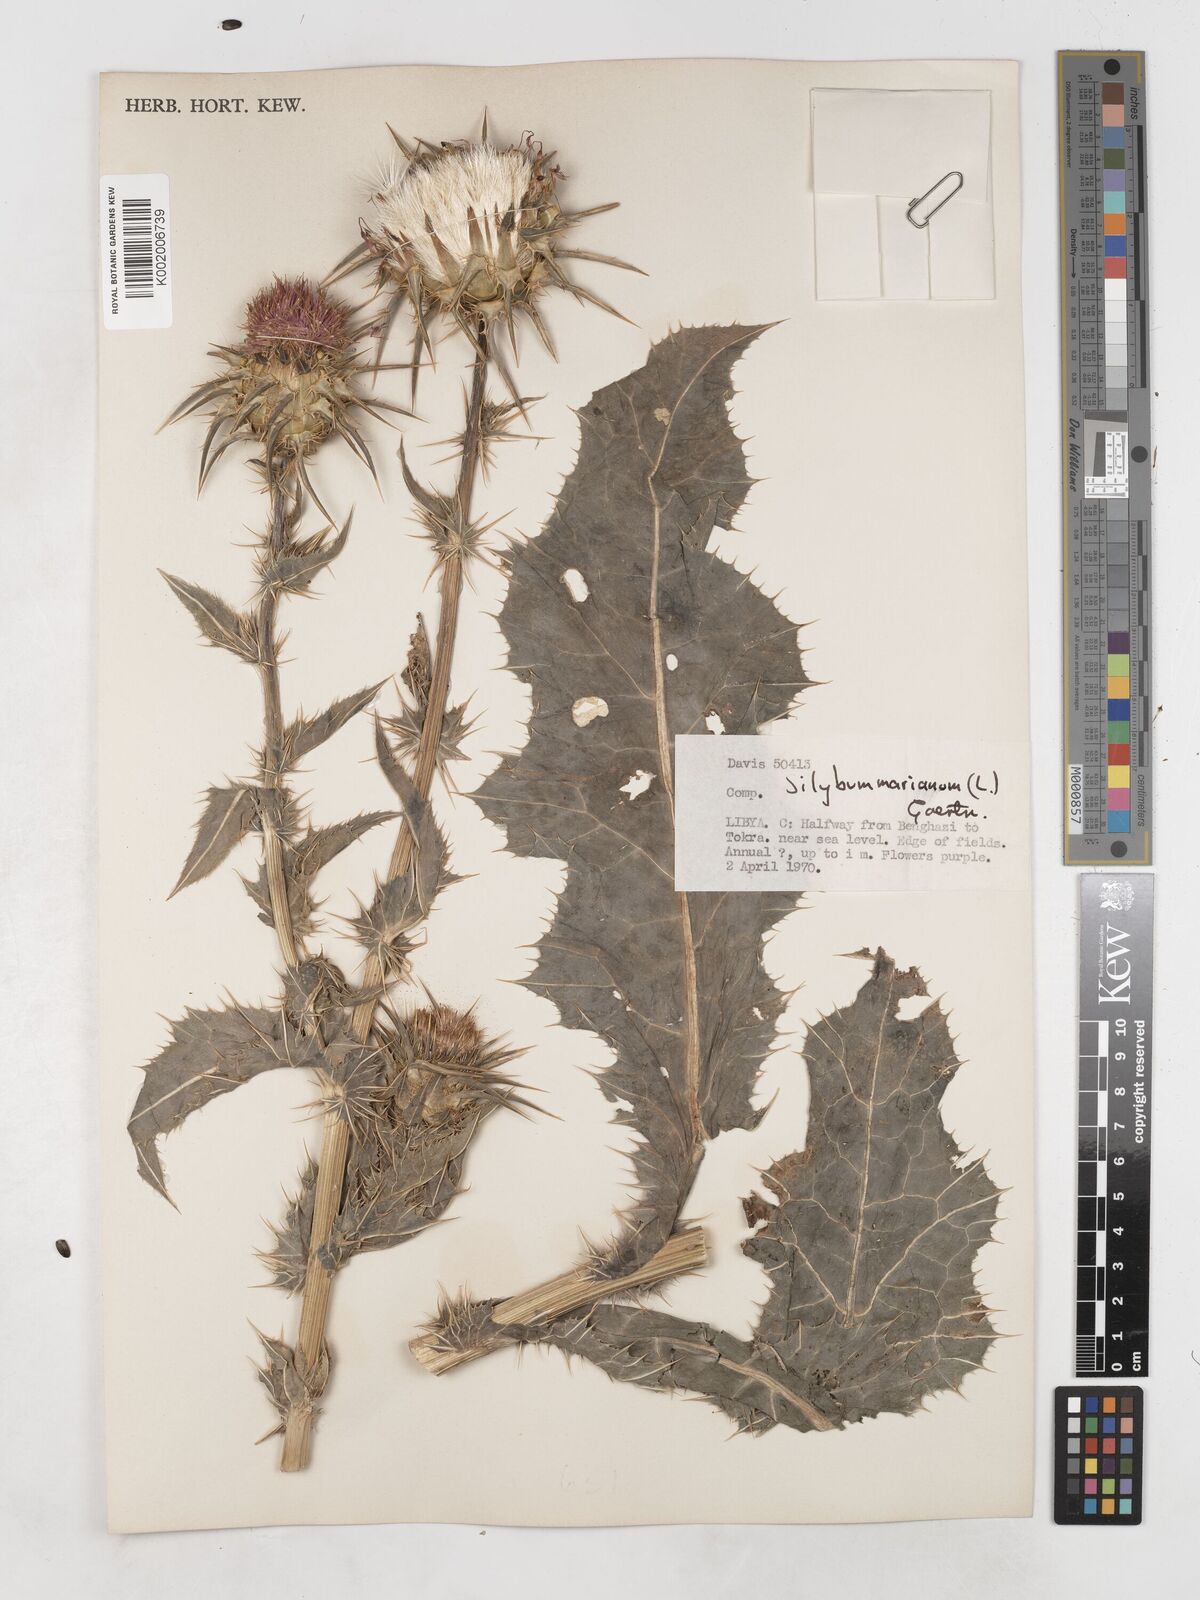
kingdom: Plantae
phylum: Tracheophyta
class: Magnoliopsida
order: Asterales
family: Asteraceae
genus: Silybum
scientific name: Silybum marianum
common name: Milk thistle
